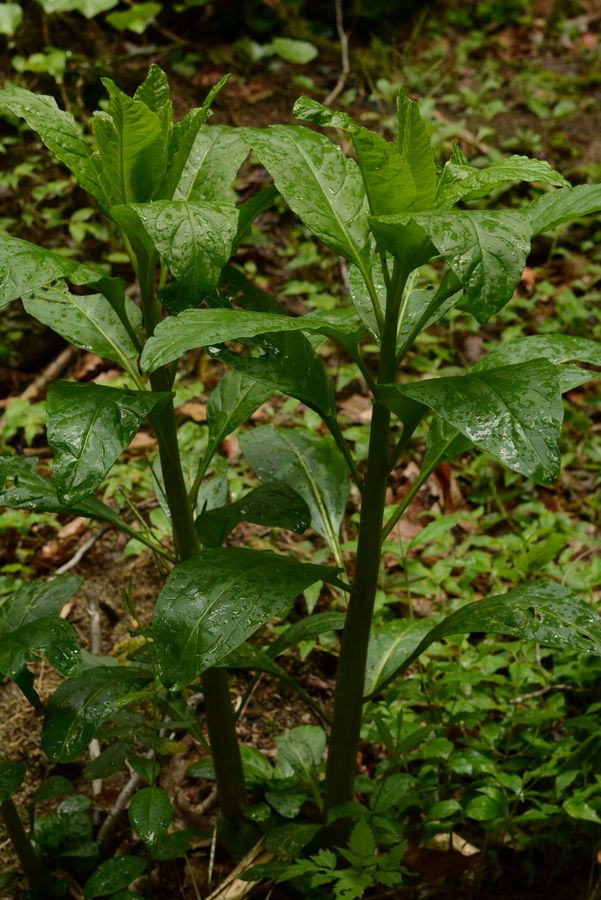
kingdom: Plantae
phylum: Tracheophyta
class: Magnoliopsida
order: Caryophyllales
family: Phytolaccaceae
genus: Phytolacca
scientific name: Phytolacca americana
